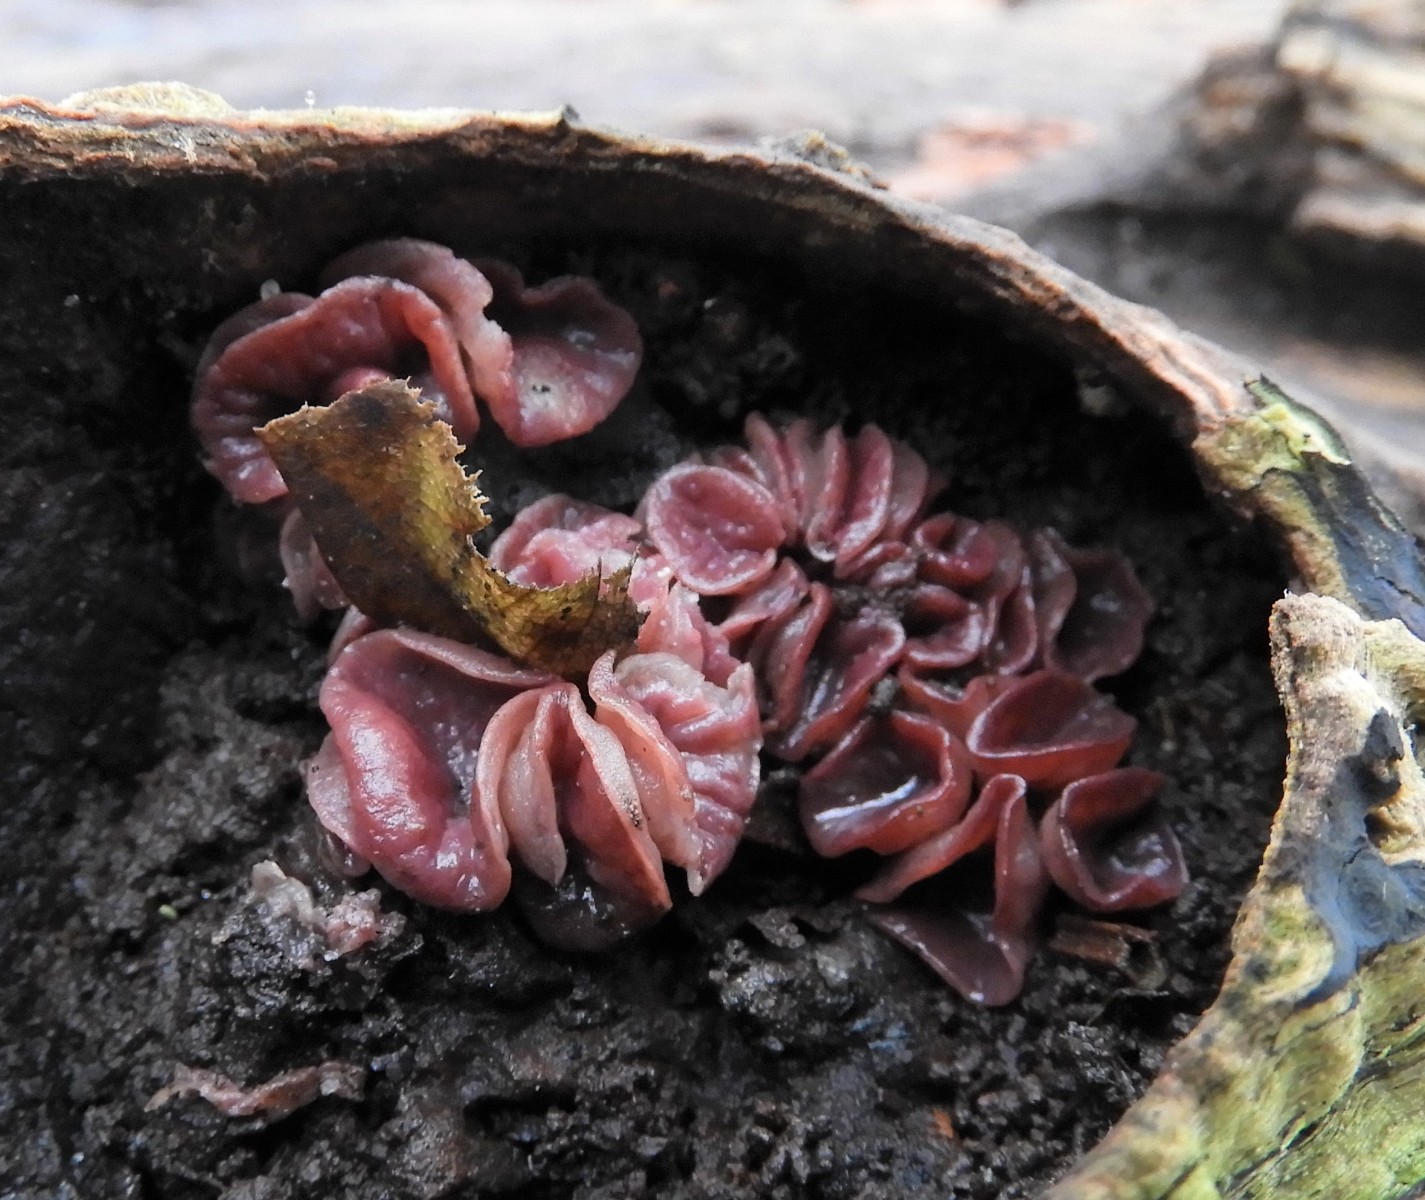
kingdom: Fungi
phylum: Ascomycota
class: Leotiomycetes
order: Helotiales
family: Gelatinodiscaceae
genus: Ascocoryne
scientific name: Ascocoryne cylichnium
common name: stor sejskive
